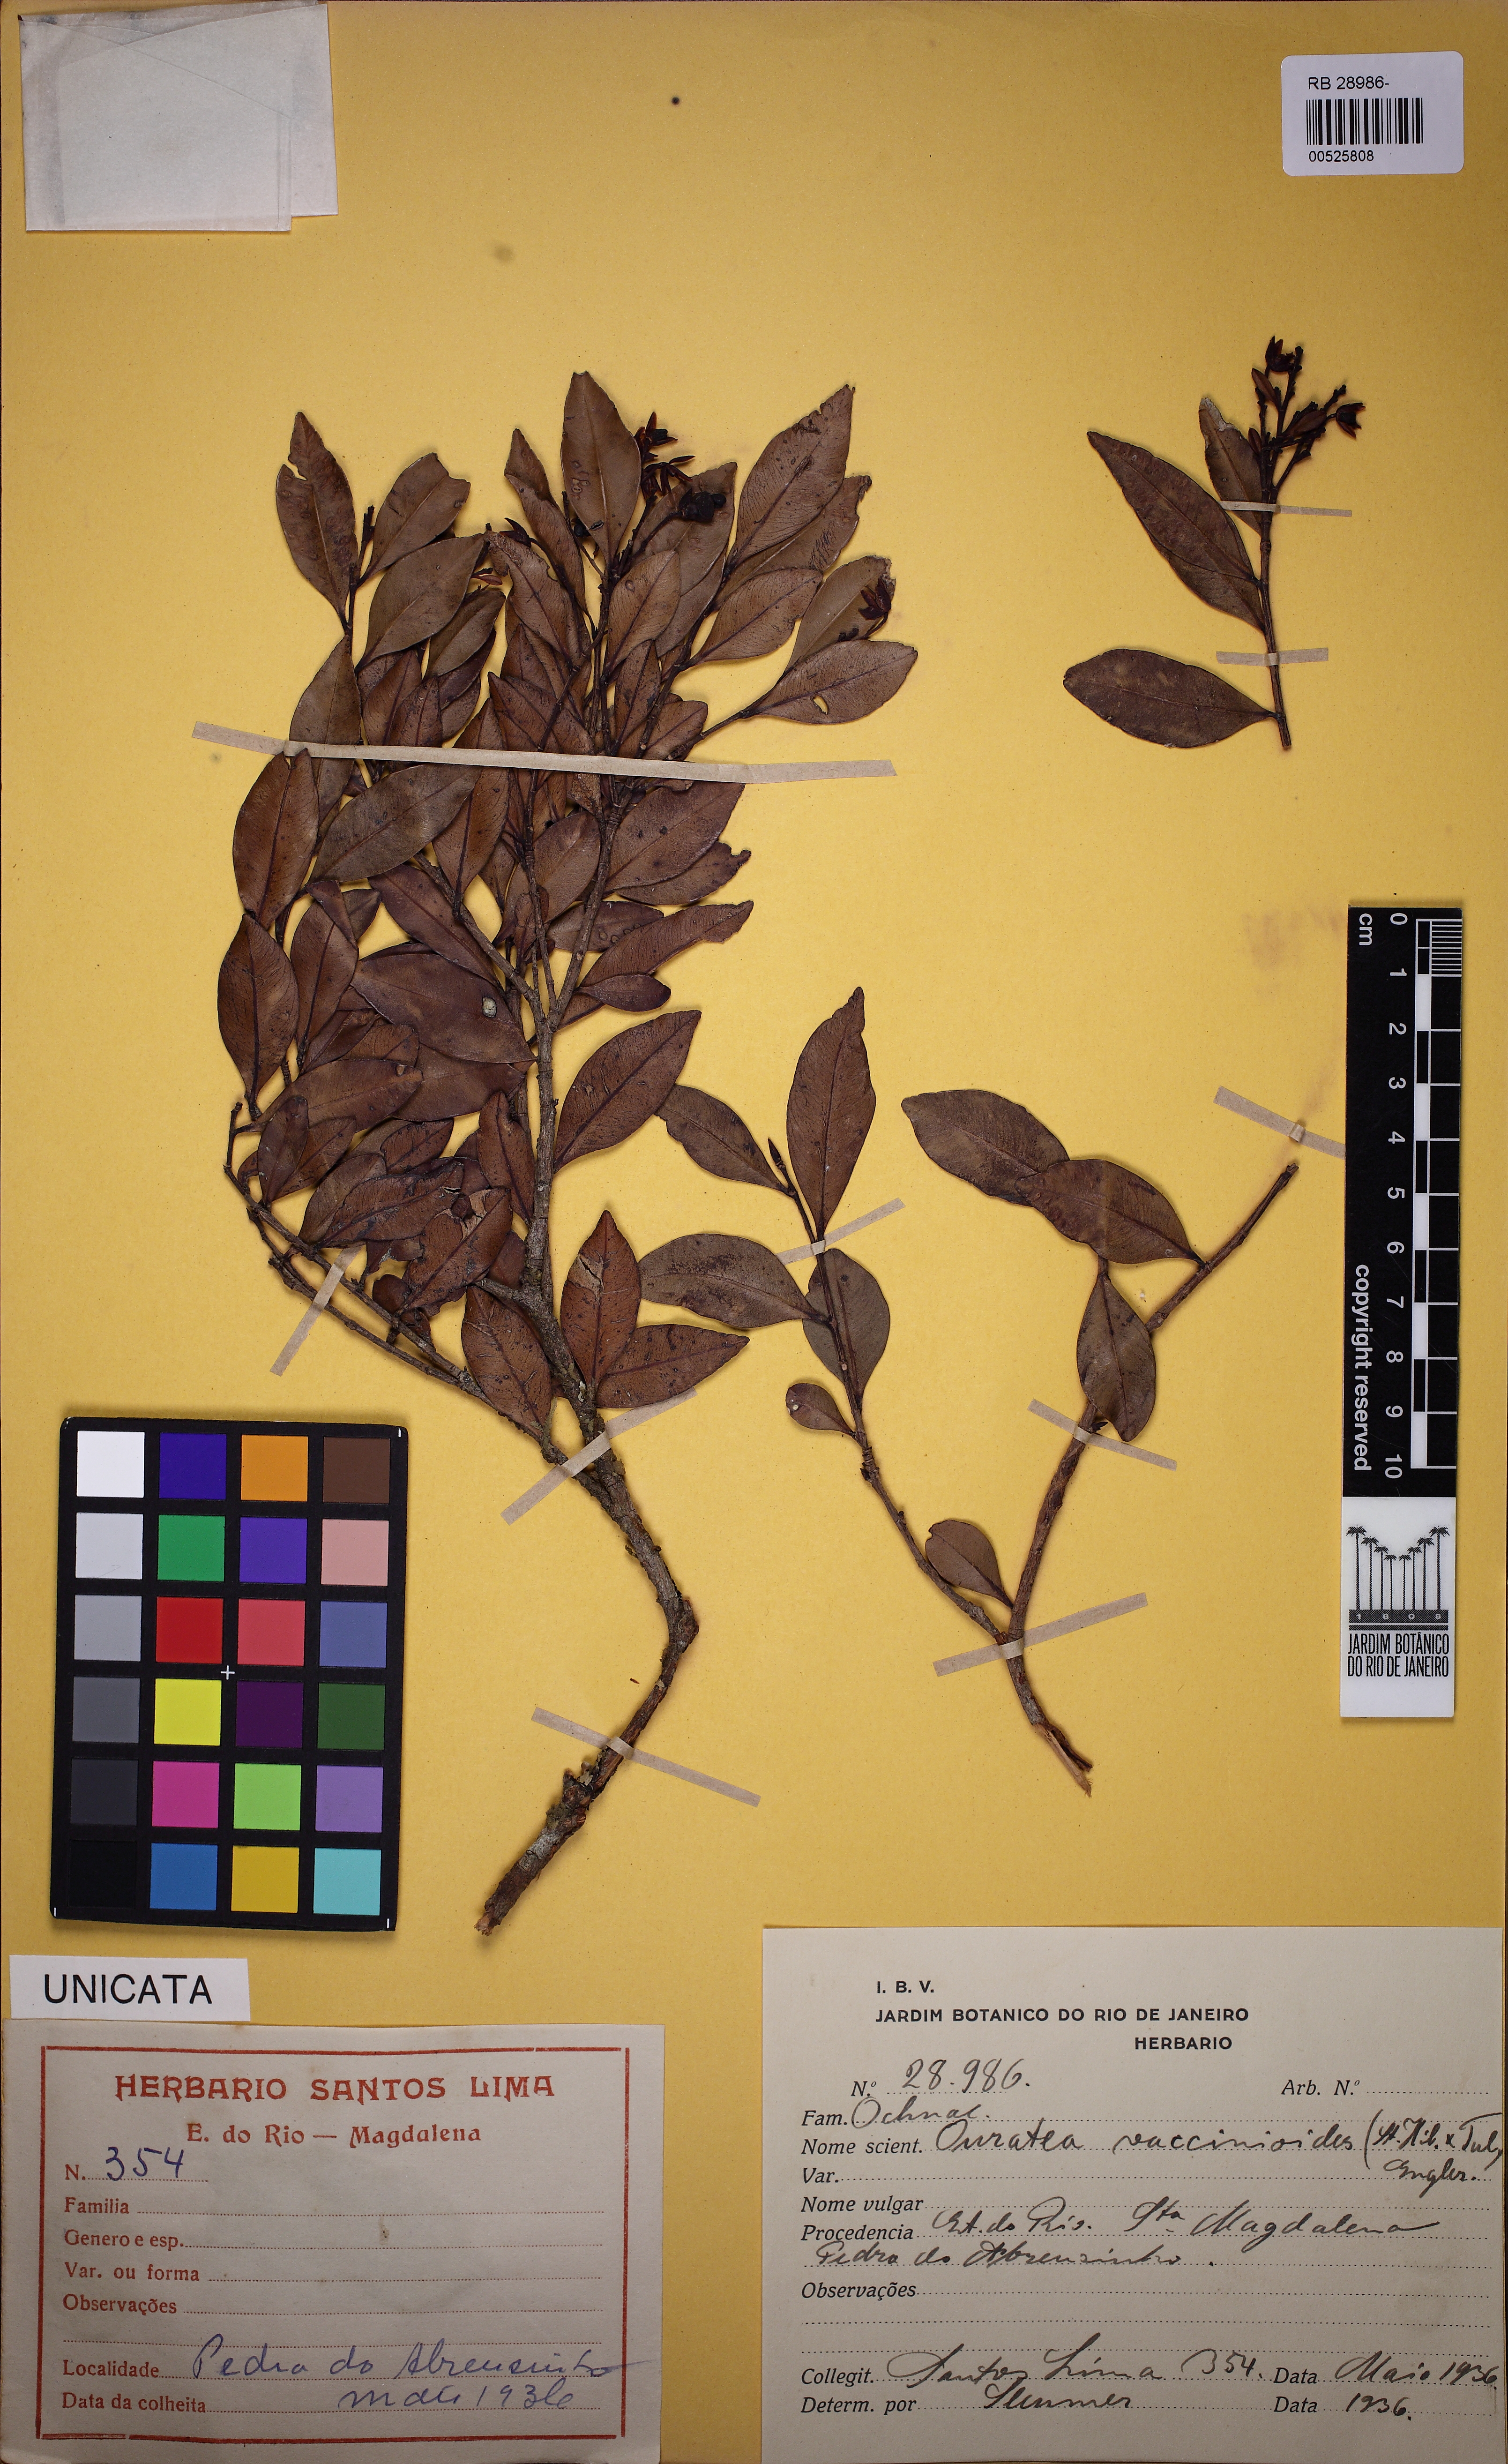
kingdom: Plantae
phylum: Tracheophyta
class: Magnoliopsida
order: Malpighiales
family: Ochnaceae
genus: Ouratea
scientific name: Ouratea vaccinioides
